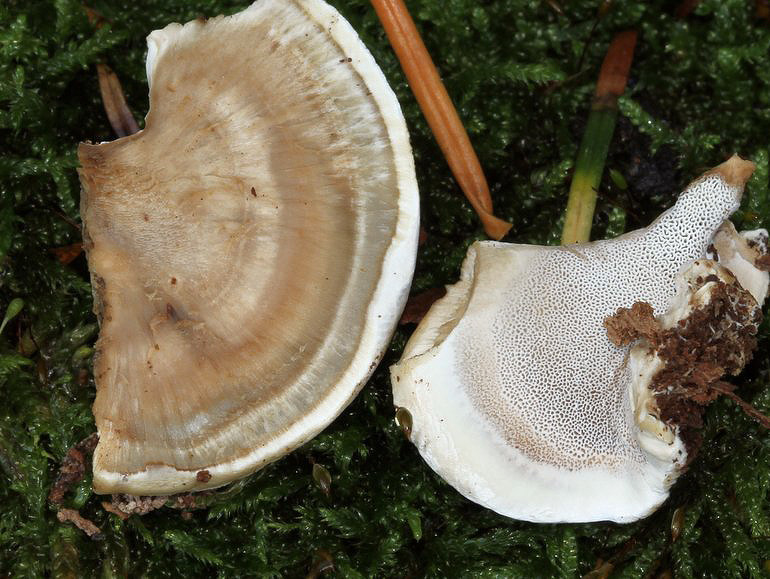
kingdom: Fungi
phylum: Basidiomycota
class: Agaricomycetes
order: Polyporales
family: Phanerochaetaceae
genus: Bjerkandera
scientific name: Bjerkandera fumosa
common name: grågul sodporesvamp
